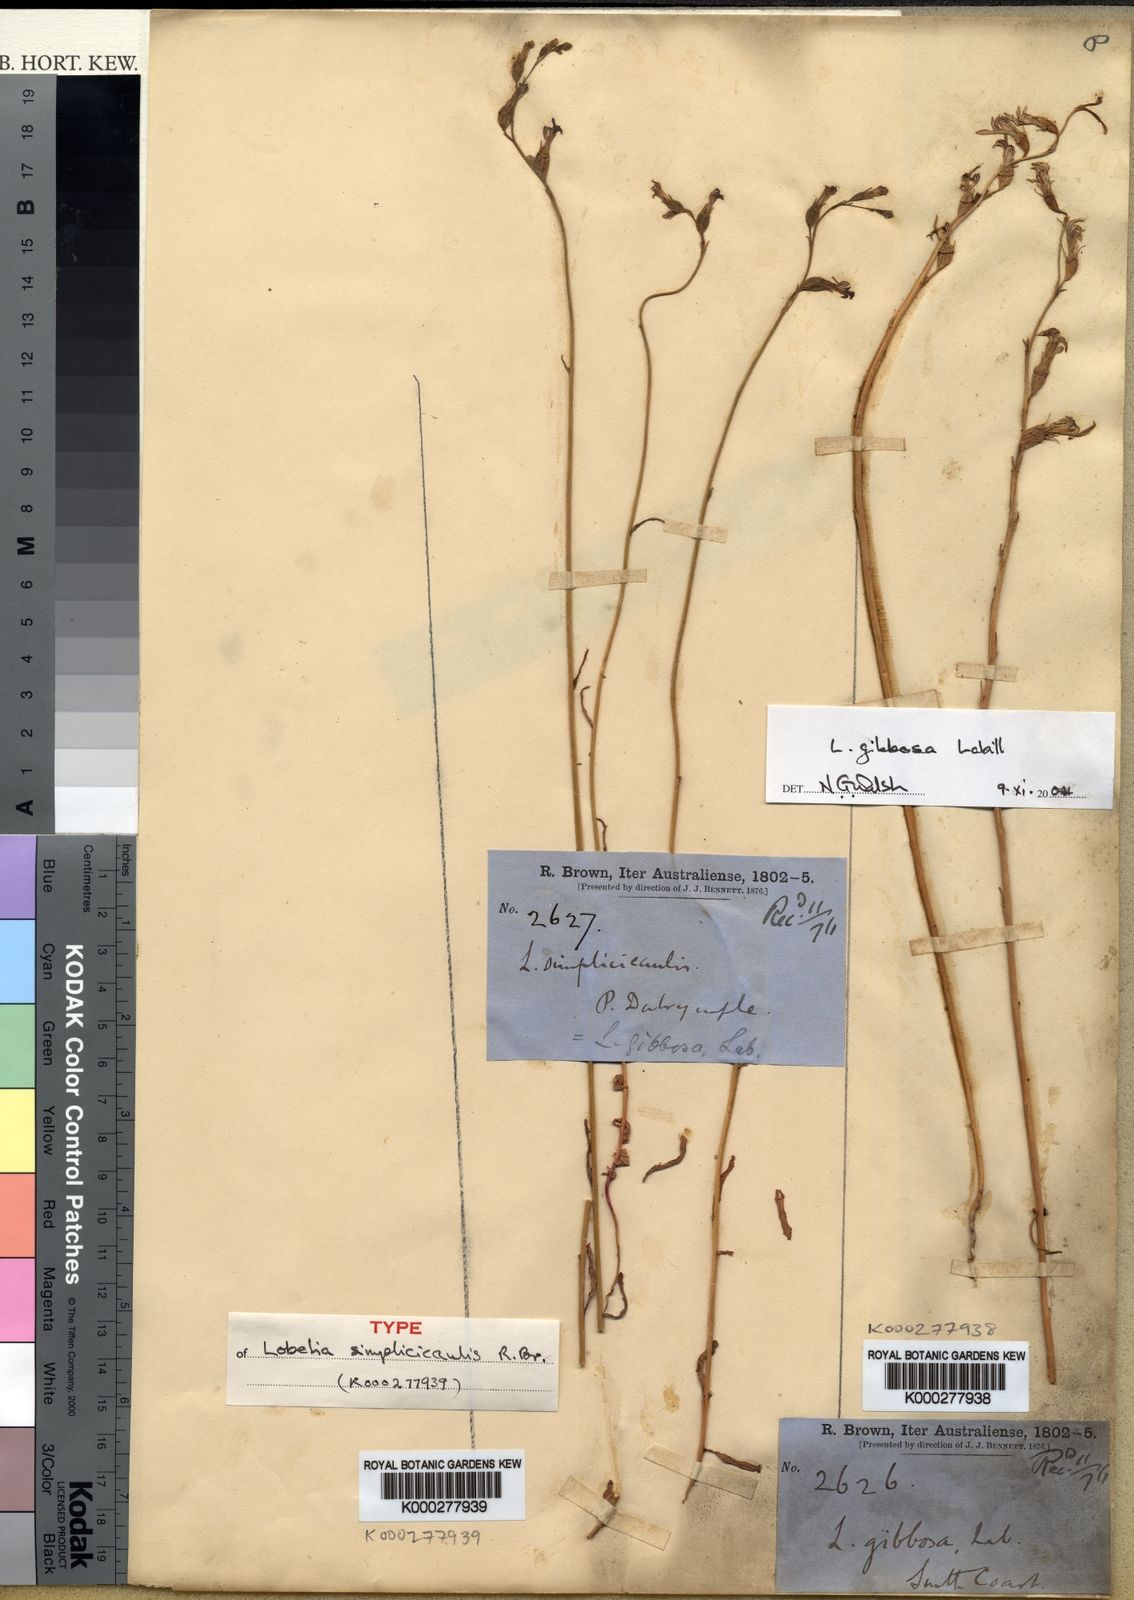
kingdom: Plantae
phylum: Tracheophyta
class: Magnoliopsida
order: Asterales
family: Campanulaceae
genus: Lobelia
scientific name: Lobelia simplicicaulis
